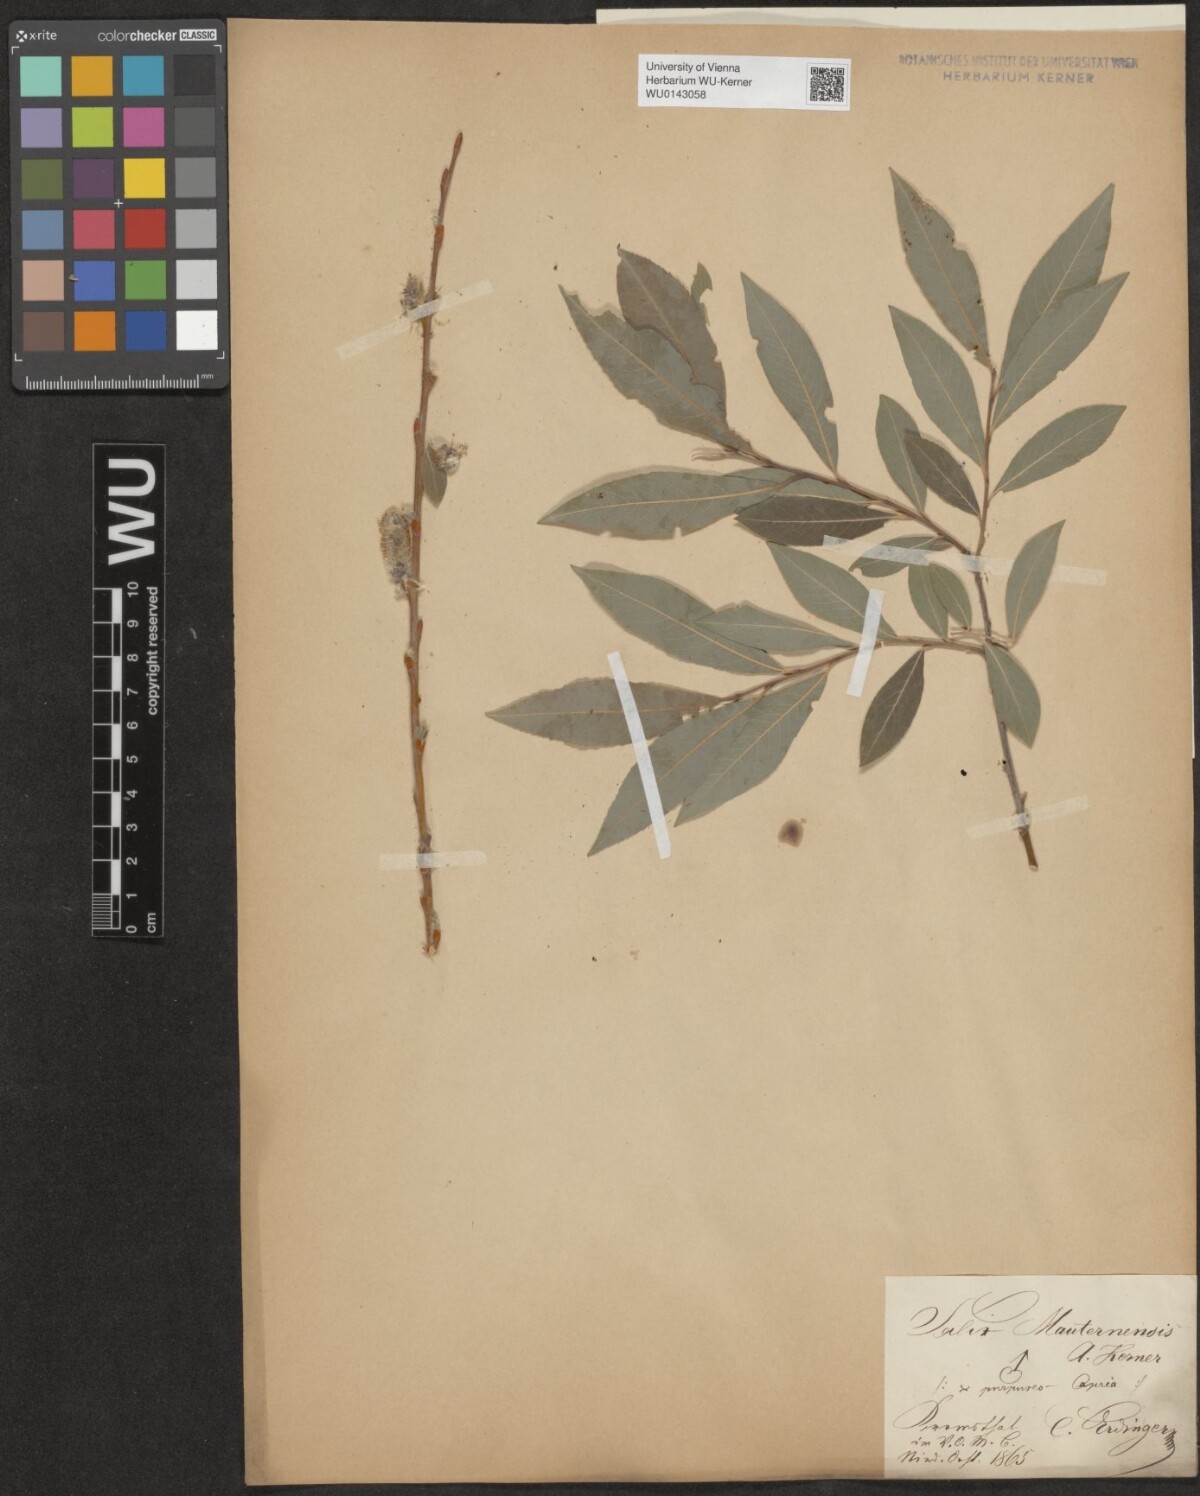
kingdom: Plantae
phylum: Tracheophyta
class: Magnoliopsida
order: Malpighiales
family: Salicaceae
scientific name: Salicaceae
